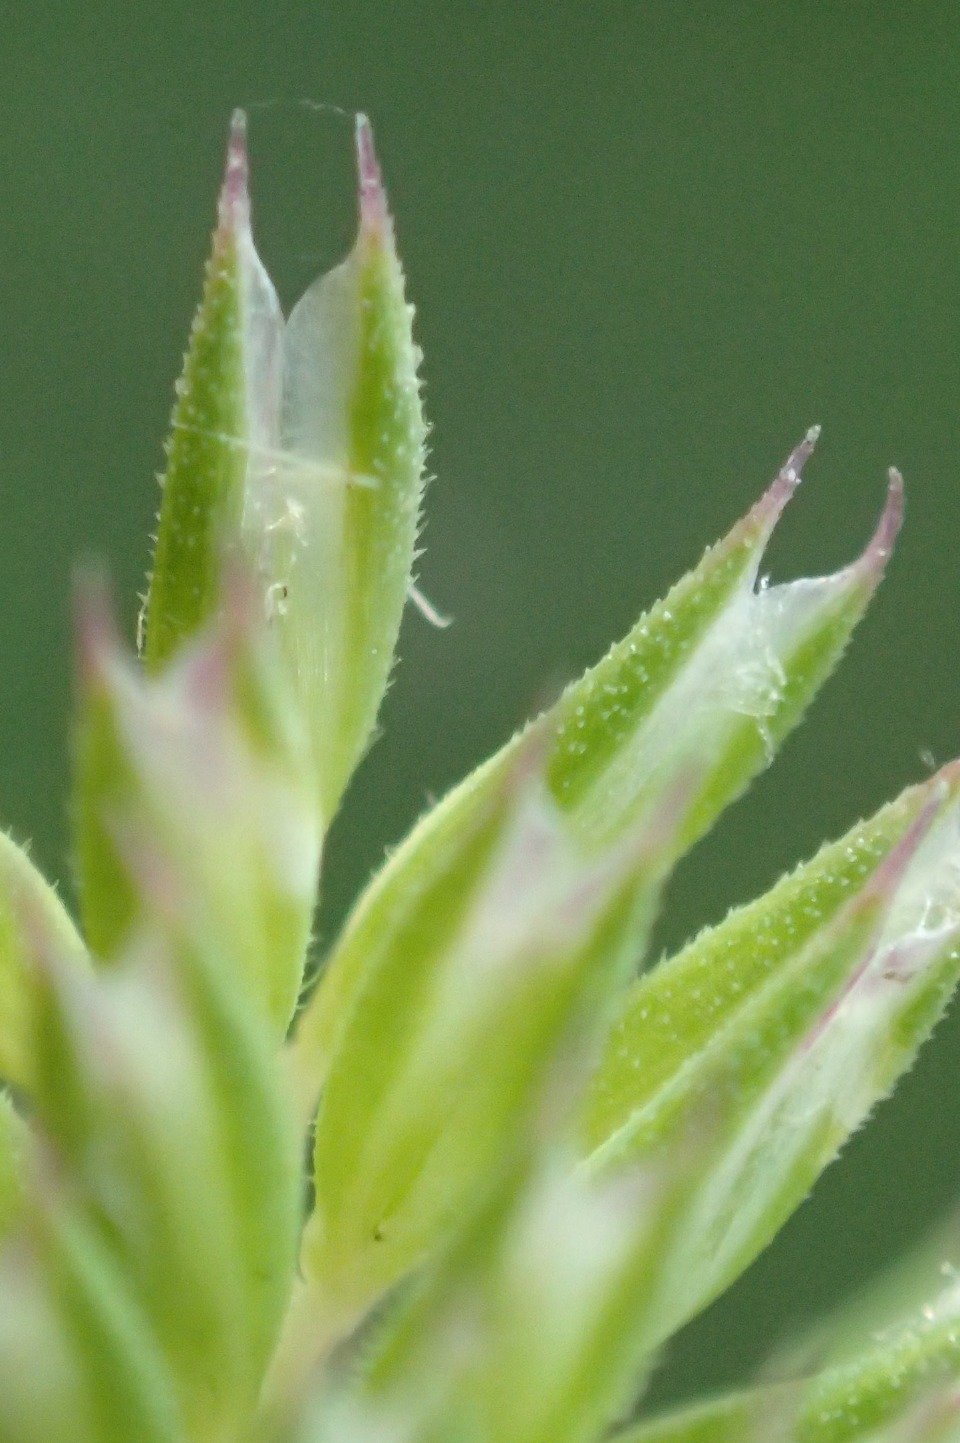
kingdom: Plantae
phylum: Tracheophyta
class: Liliopsida
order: Poales
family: Poaceae
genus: Phleum
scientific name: Phleum phleoides
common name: Glat rottehale
